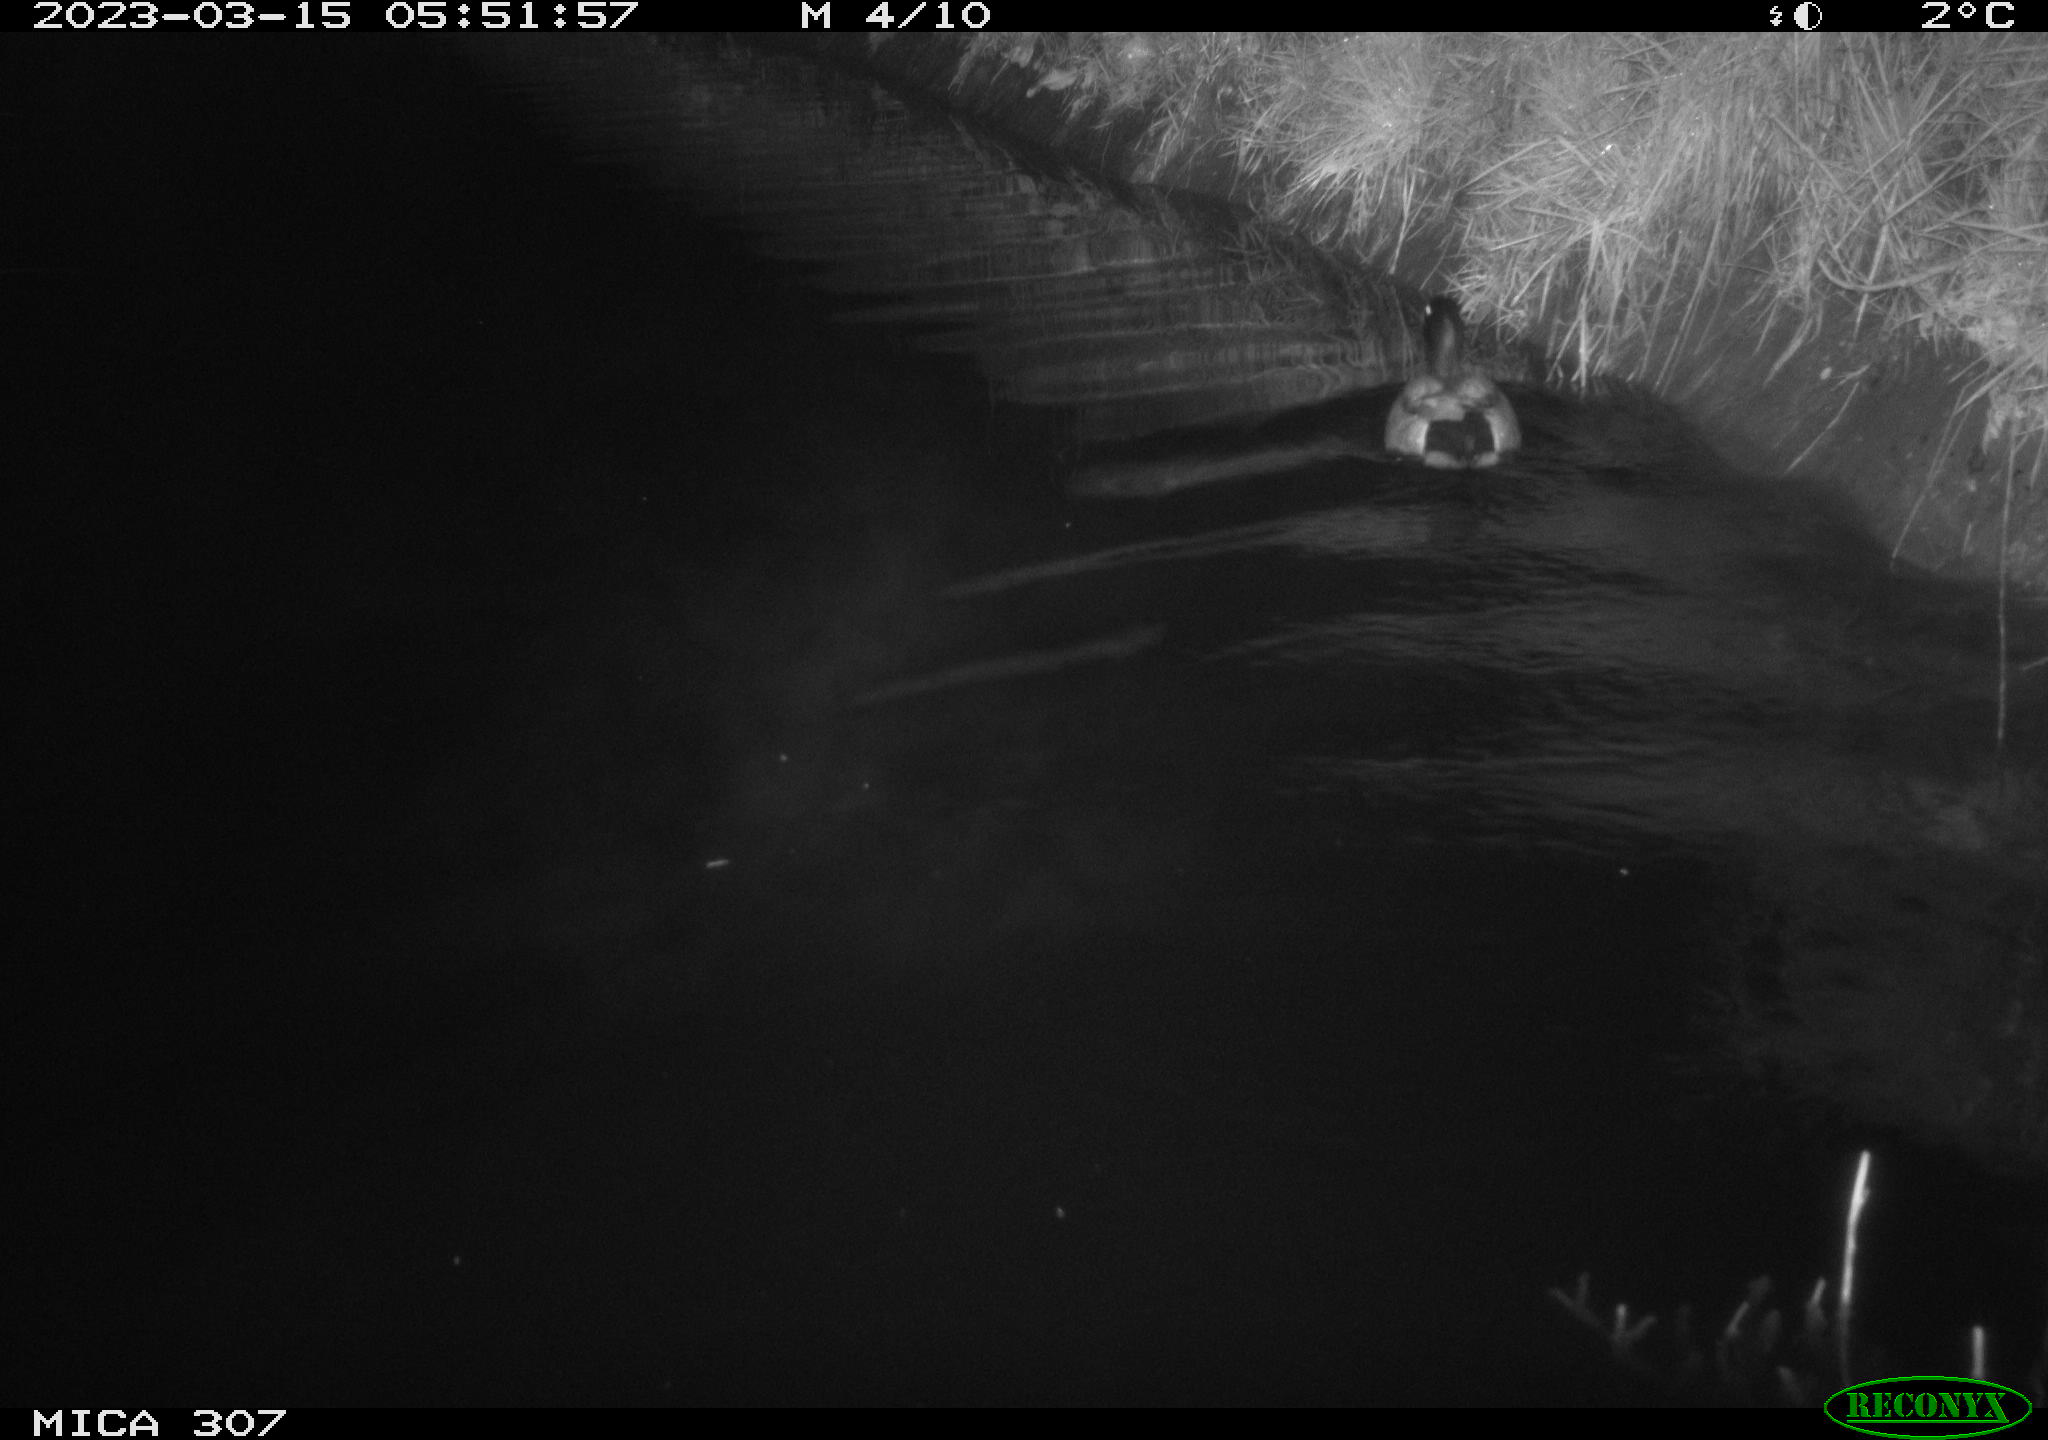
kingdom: Animalia
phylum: Chordata
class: Aves
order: Anseriformes
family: Anatidae
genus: Anas
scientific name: Anas
